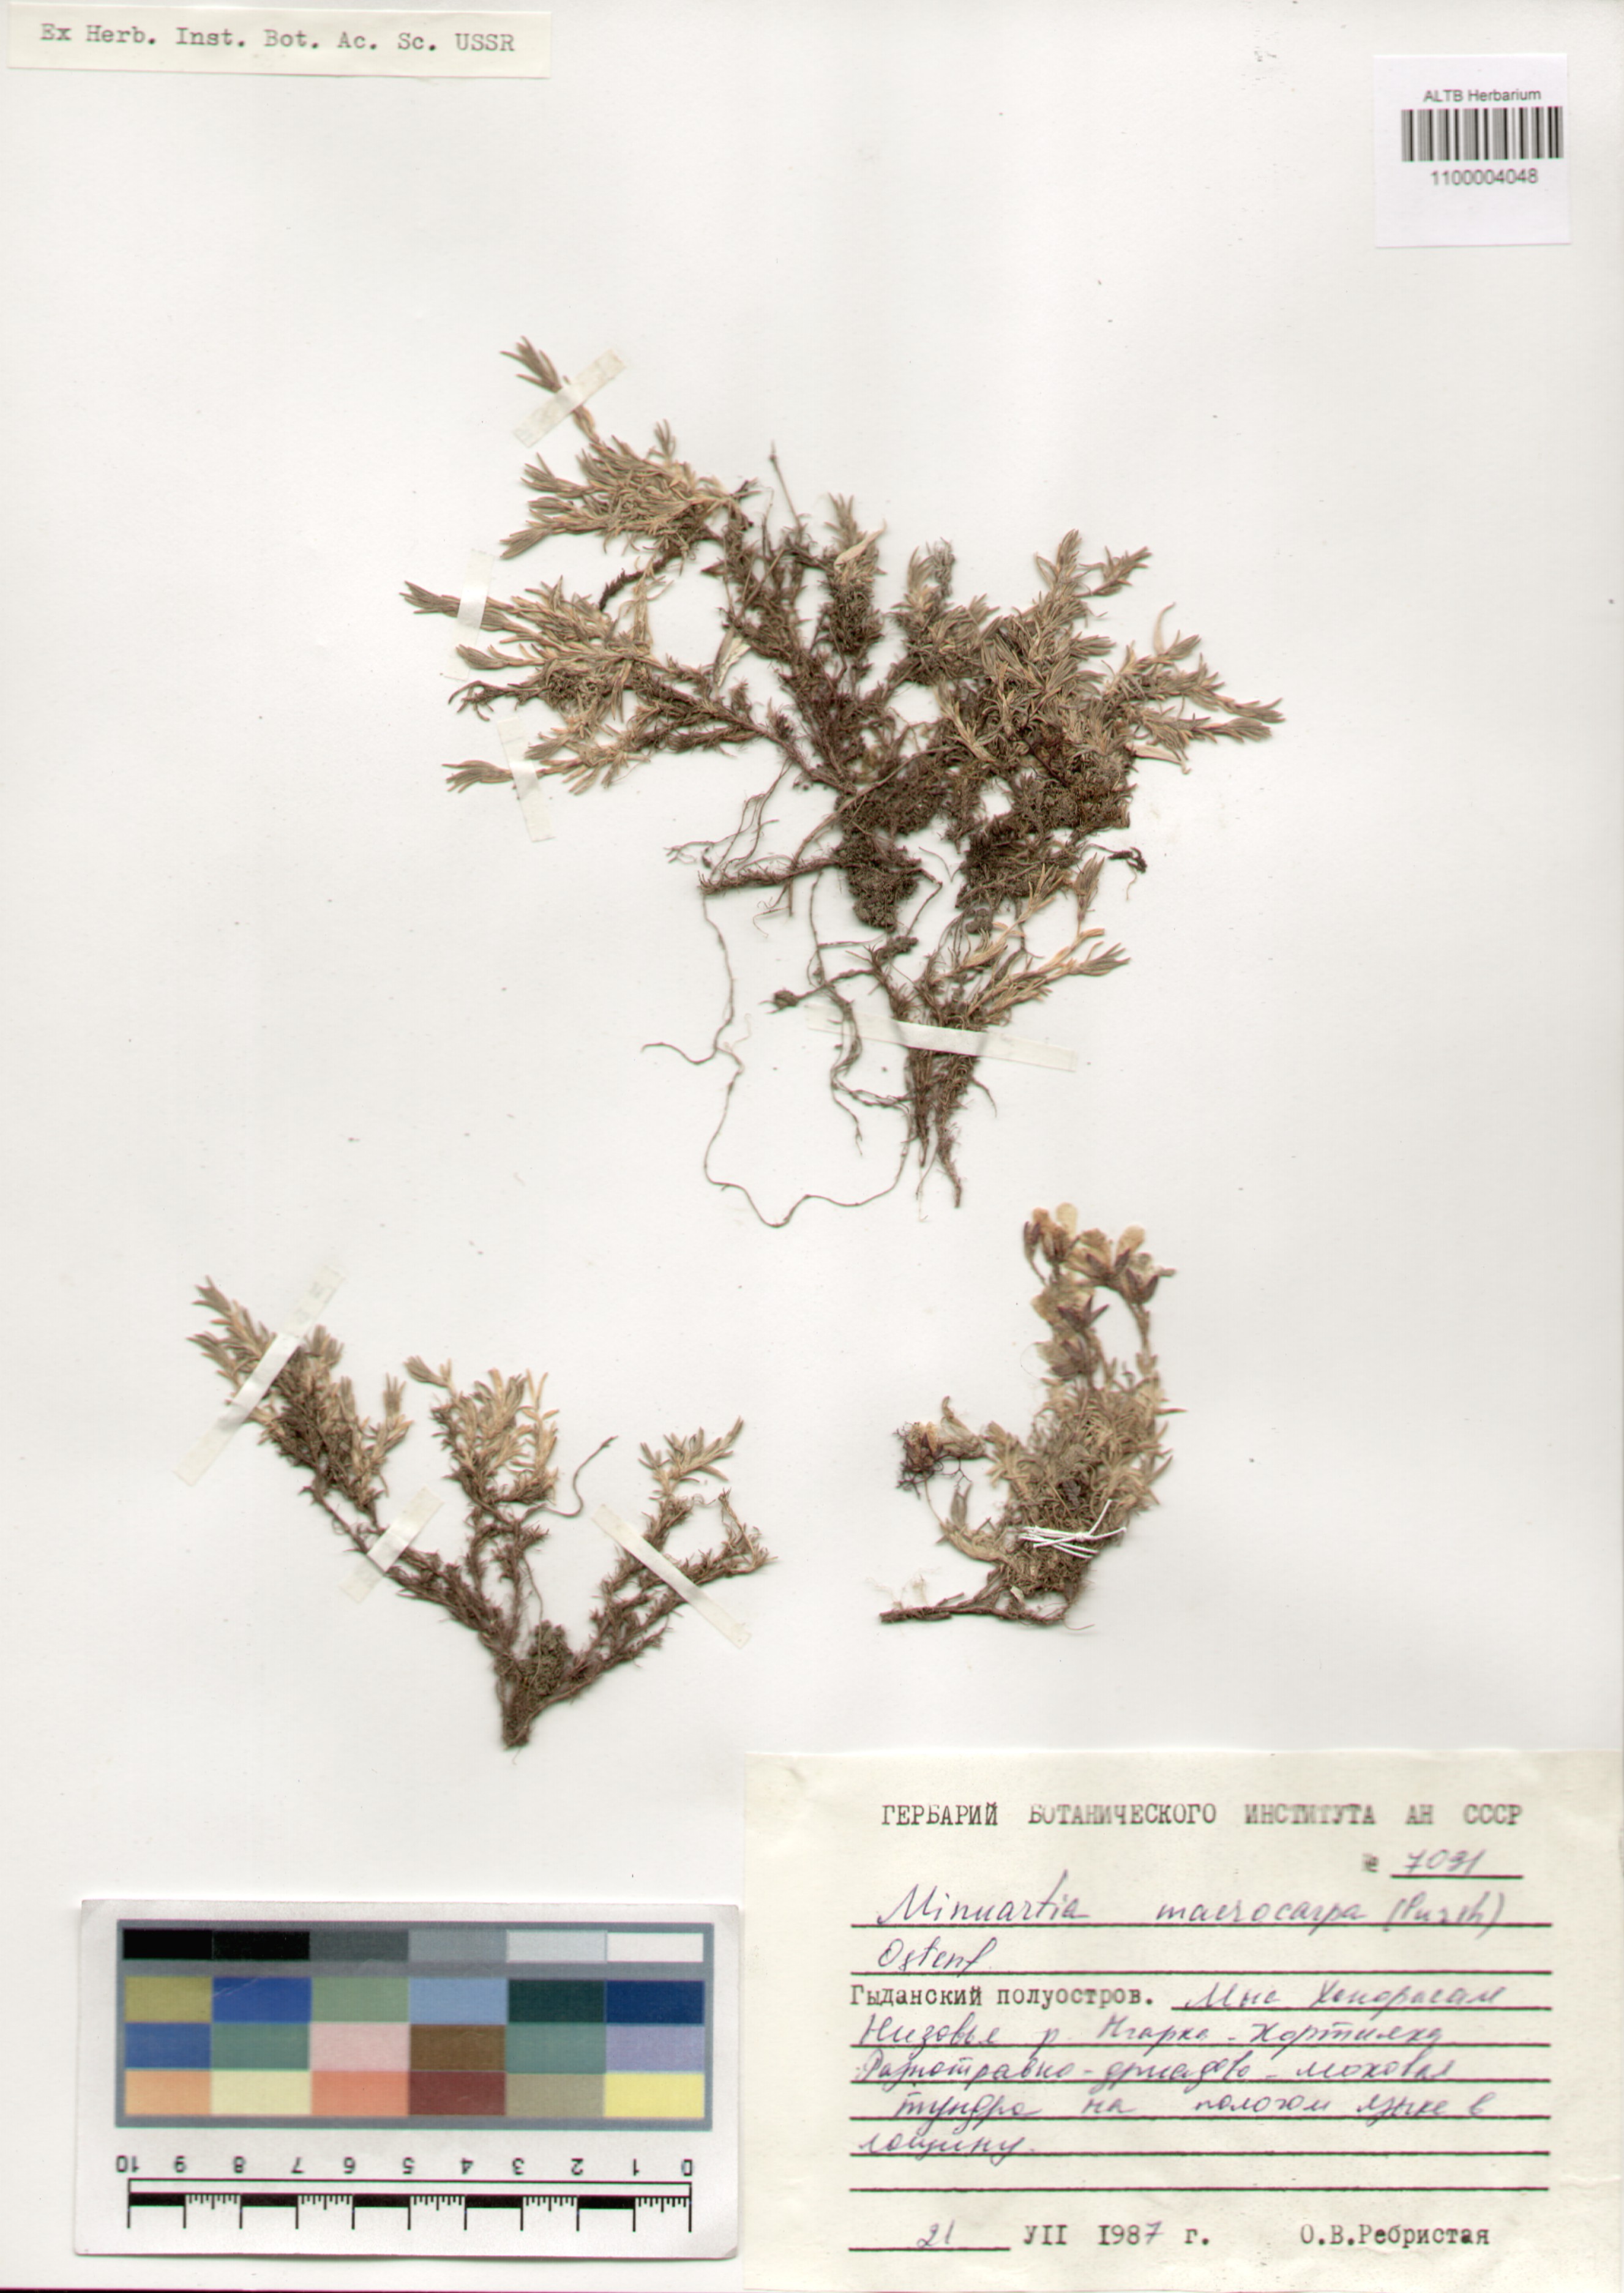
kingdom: Plantae
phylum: Tracheophyta
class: Magnoliopsida
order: Caryophyllales
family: Caryophyllaceae
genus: Pseudocherleria
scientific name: Pseudocherleria macrocarpa
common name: Large-fruit sandwort
